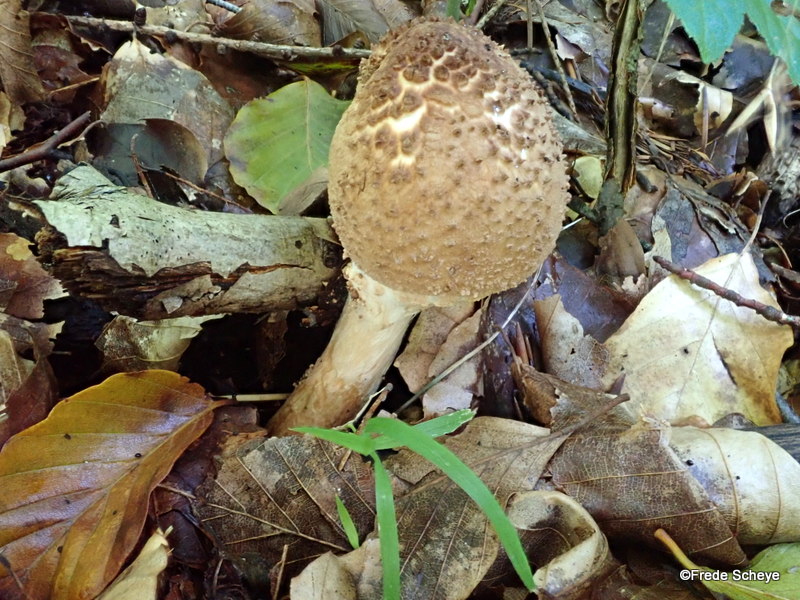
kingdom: Fungi
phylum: Basidiomycota
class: Agaricomycetes
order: Agaricales
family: Agaricaceae
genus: Echinoderma
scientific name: Echinoderma asperum
